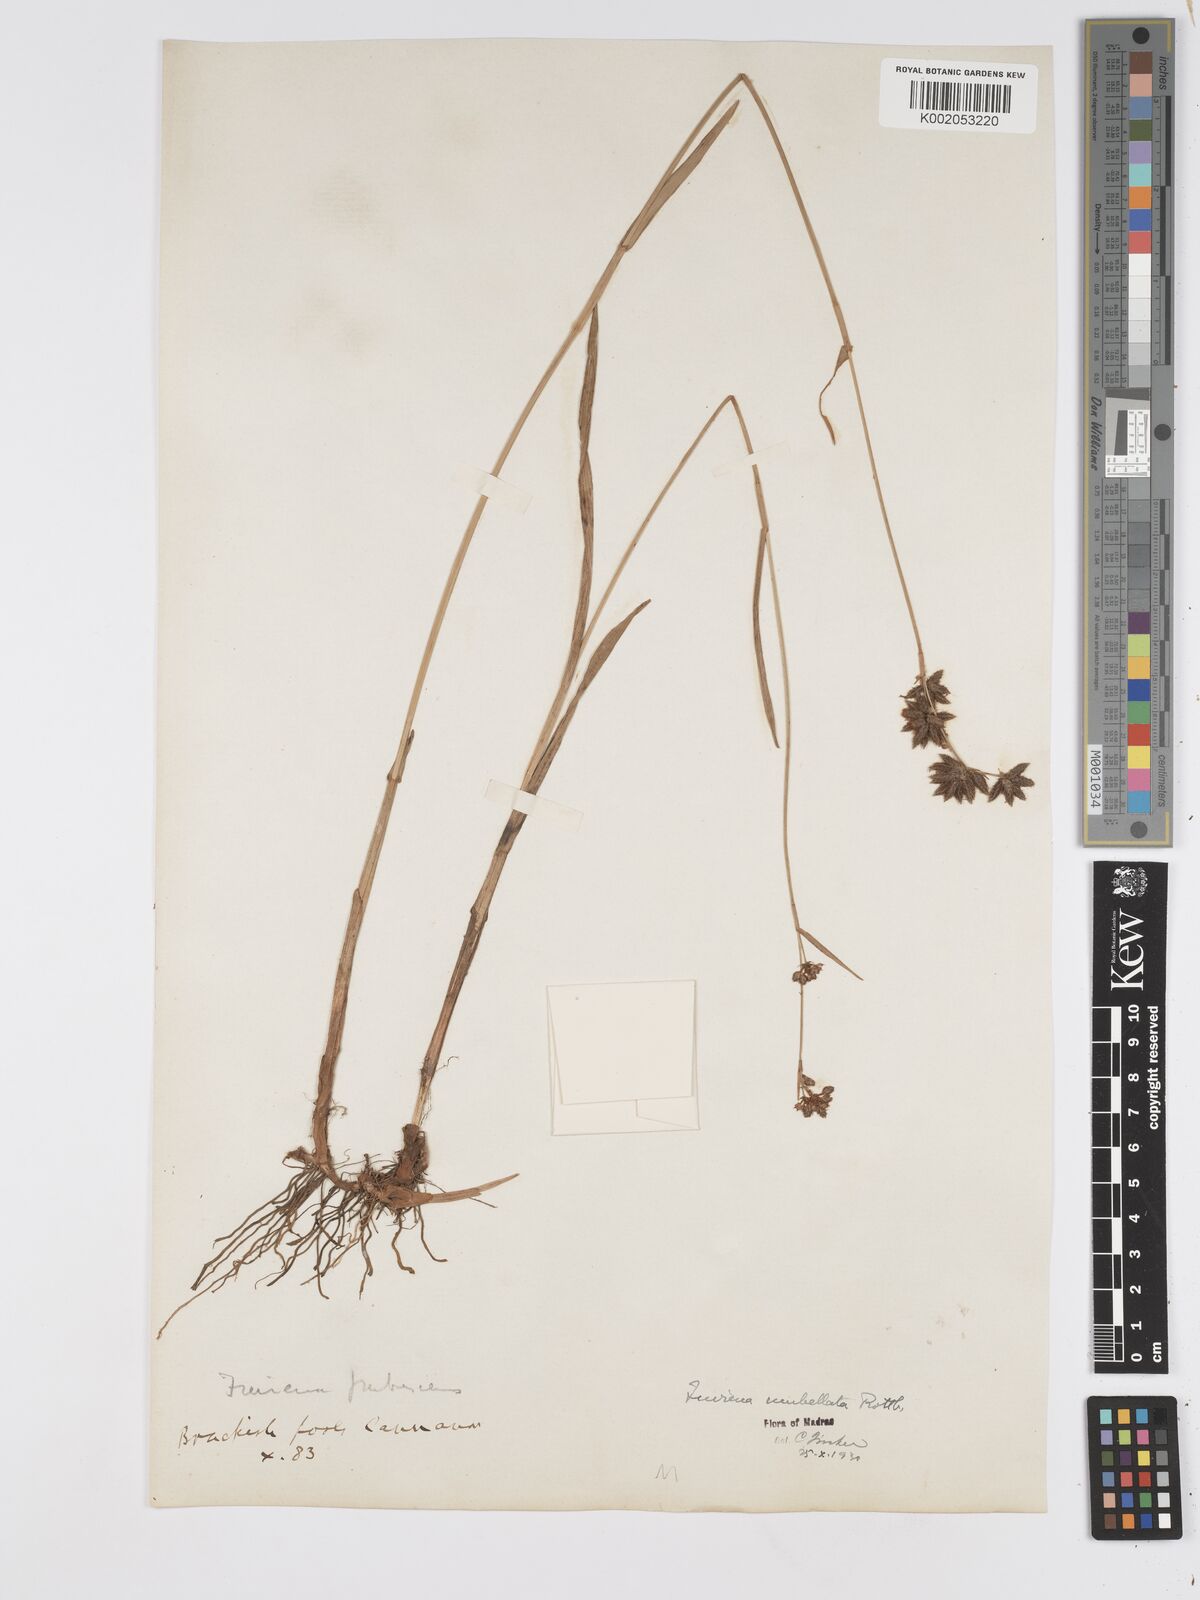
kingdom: Plantae
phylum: Tracheophyta
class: Liliopsida
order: Poales
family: Cyperaceae
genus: Fuirena
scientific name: Fuirena umbellata
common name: Yefen
